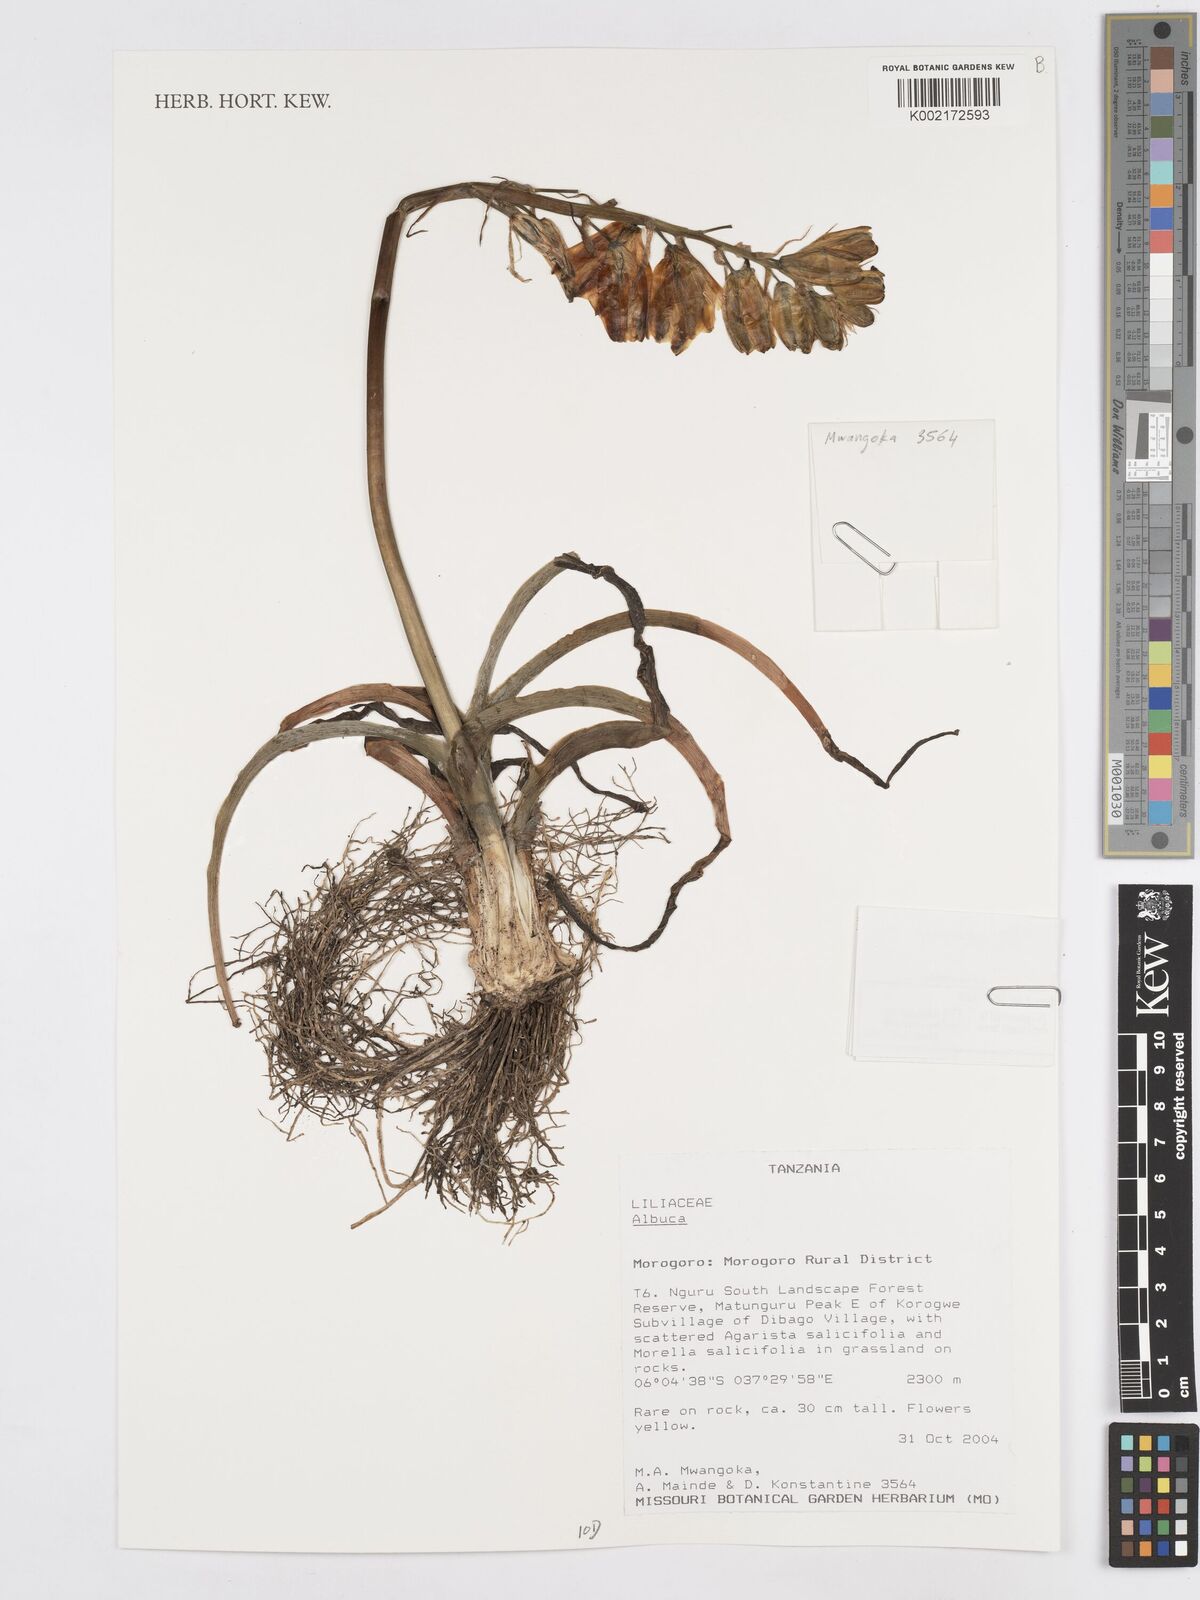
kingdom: Plantae
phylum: Tracheophyta
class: Liliopsida
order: Asparagales
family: Asparagaceae
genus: Albuca
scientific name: Albuca
